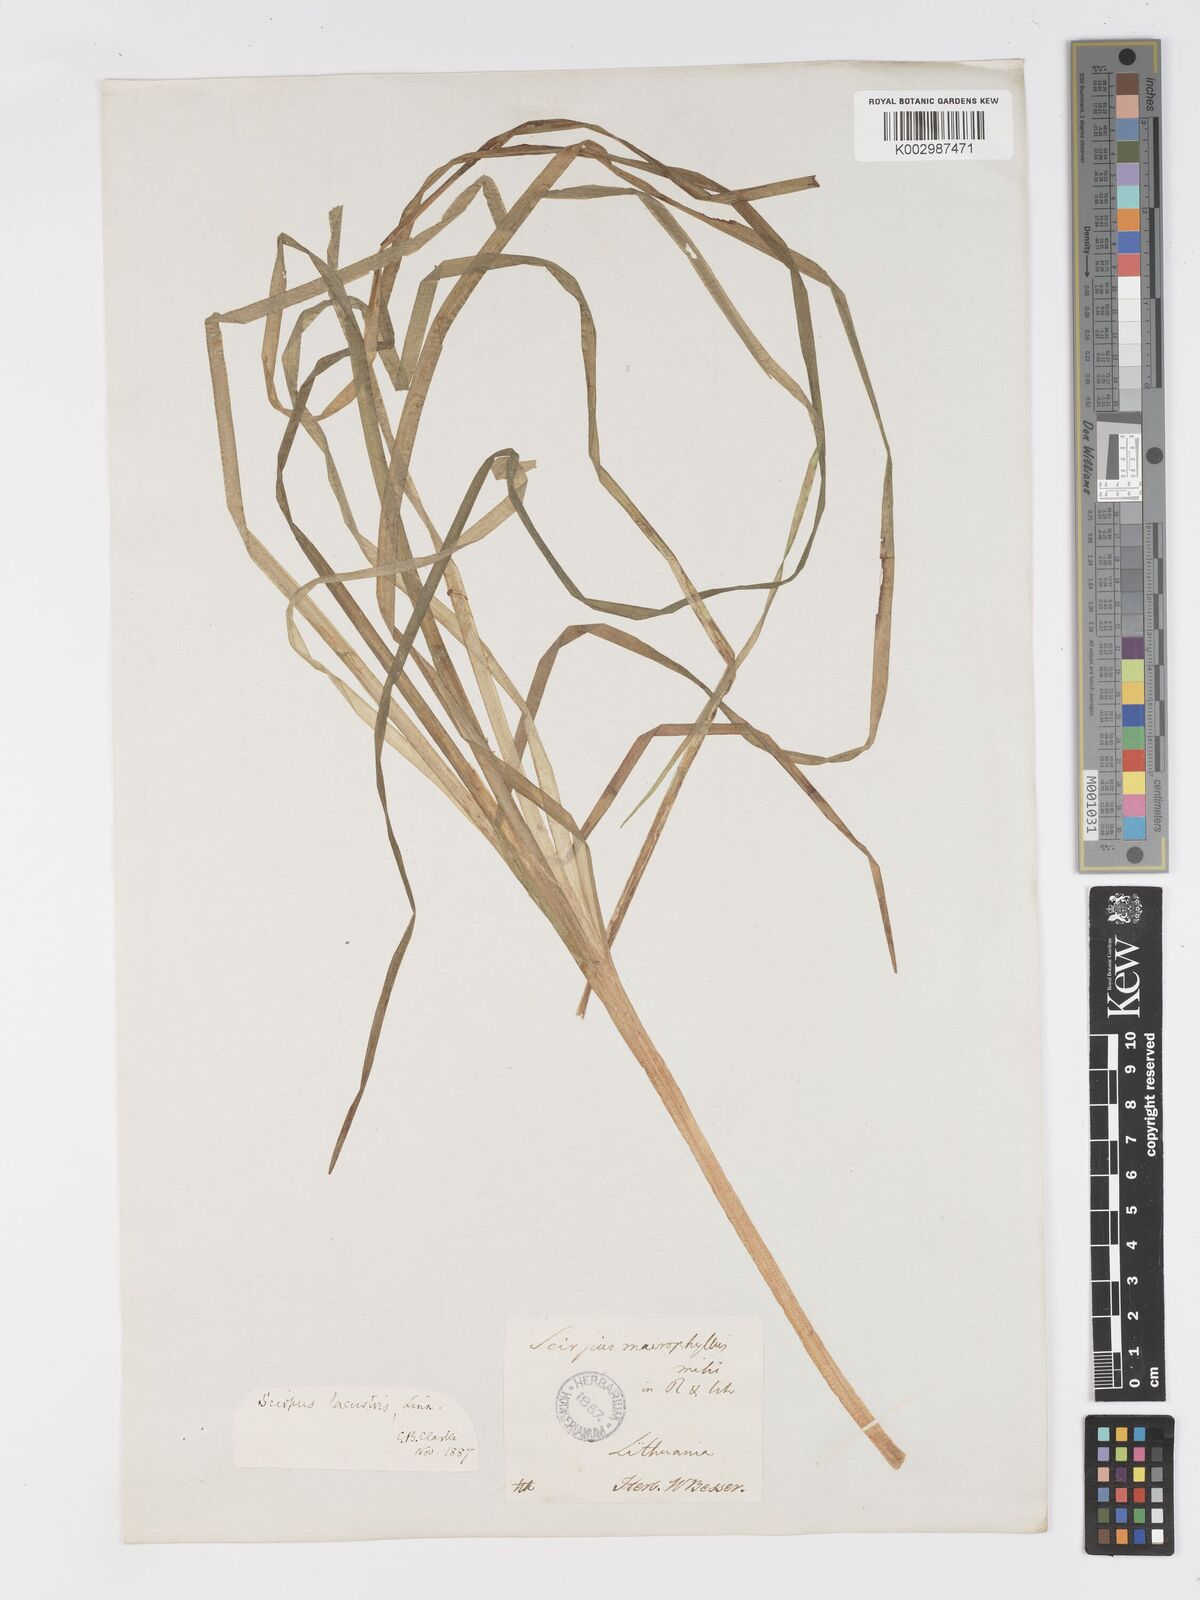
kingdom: Plantae
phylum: Tracheophyta
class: Liliopsida
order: Poales
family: Cyperaceae
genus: Schoenoplectus
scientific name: Schoenoplectus lacustris
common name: Common club-rush
